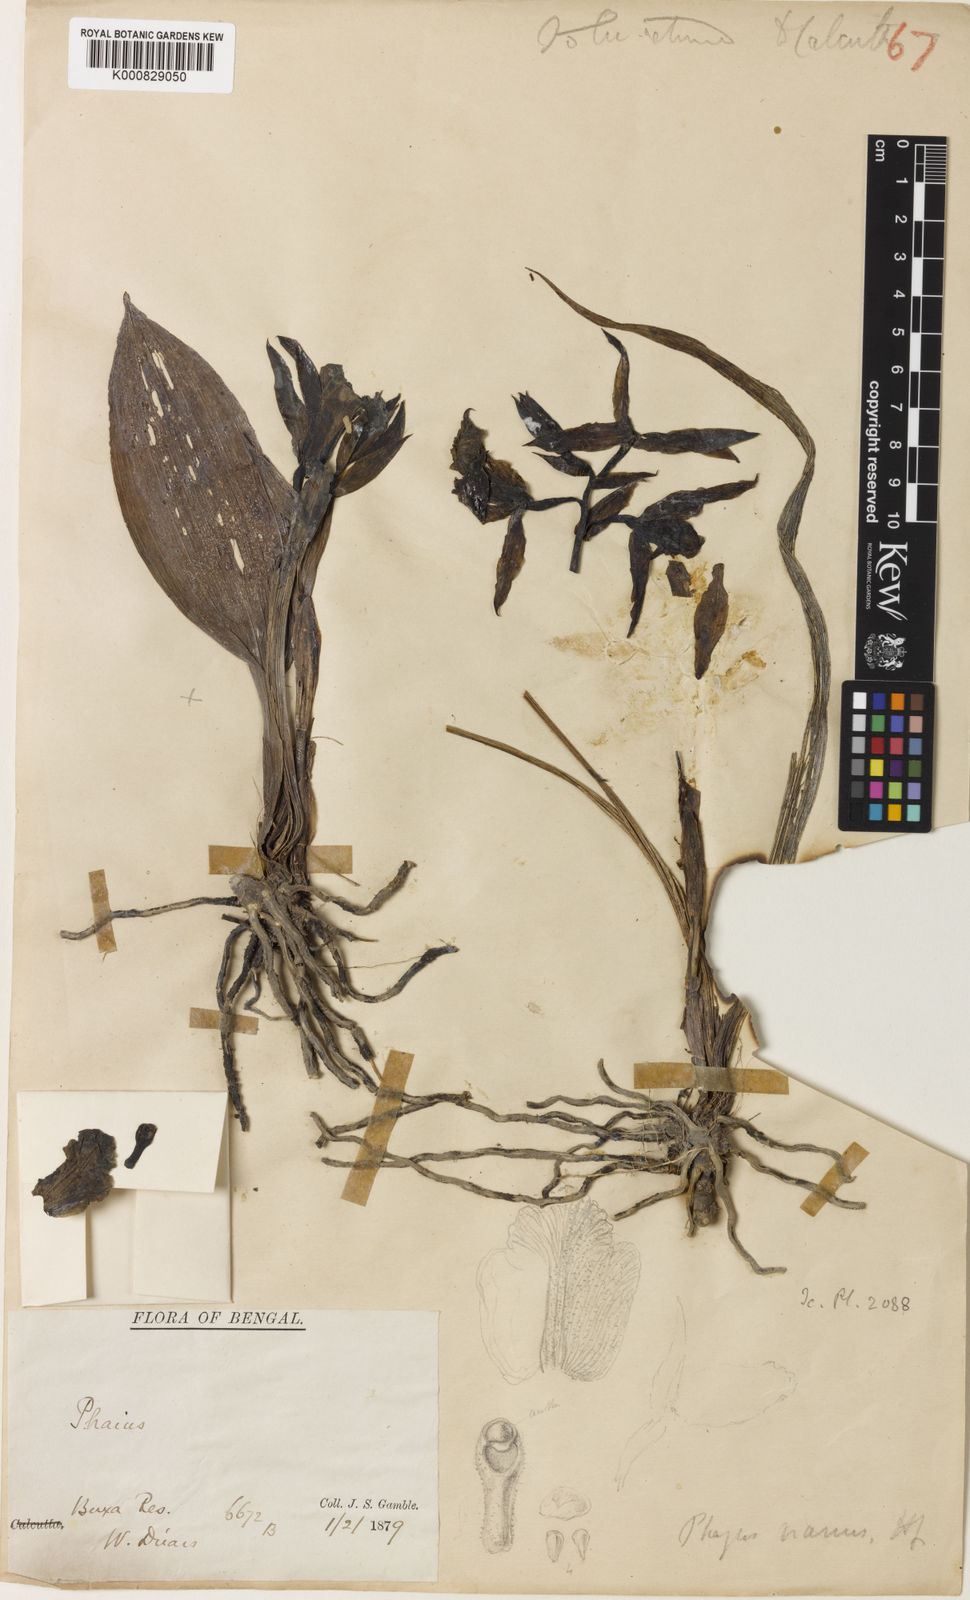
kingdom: Plantae
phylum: Tracheophyta
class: Liliopsida
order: Asparagales
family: Orchidaceae
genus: Calanthe
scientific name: Calanthe nana
